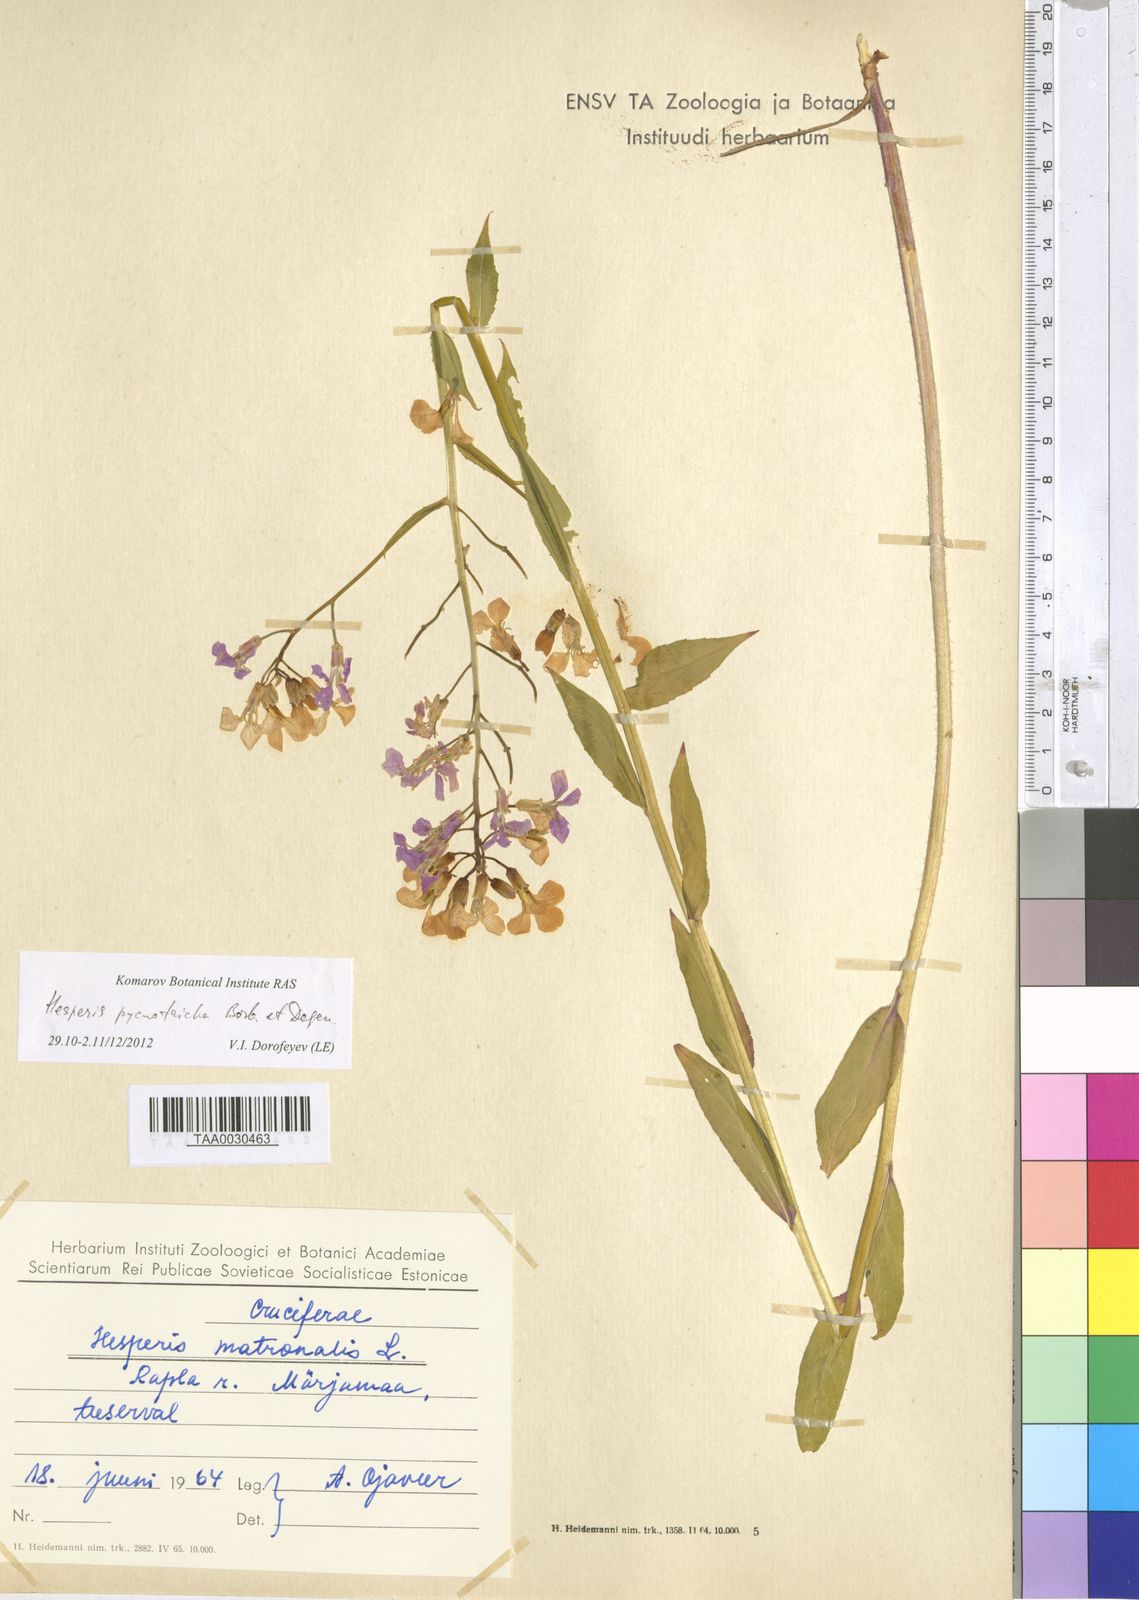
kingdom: Plantae
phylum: Tracheophyta
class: Magnoliopsida
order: Brassicales
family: Brassicaceae
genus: Hesperis
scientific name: Hesperis pycnotricha
